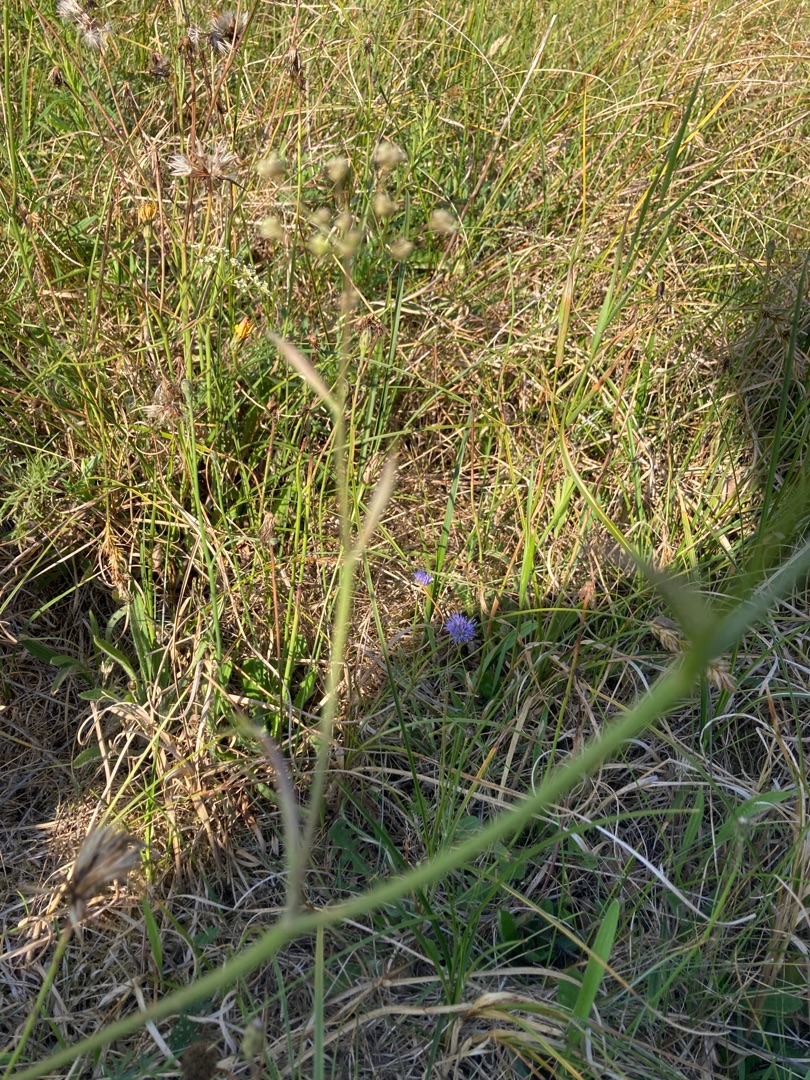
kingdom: Plantae
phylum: Tracheophyta
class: Magnoliopsida
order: Apiales
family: Apiaceae
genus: Pimpinella
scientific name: Pimpinella saxifraga
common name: Almindelig pimpinelle
